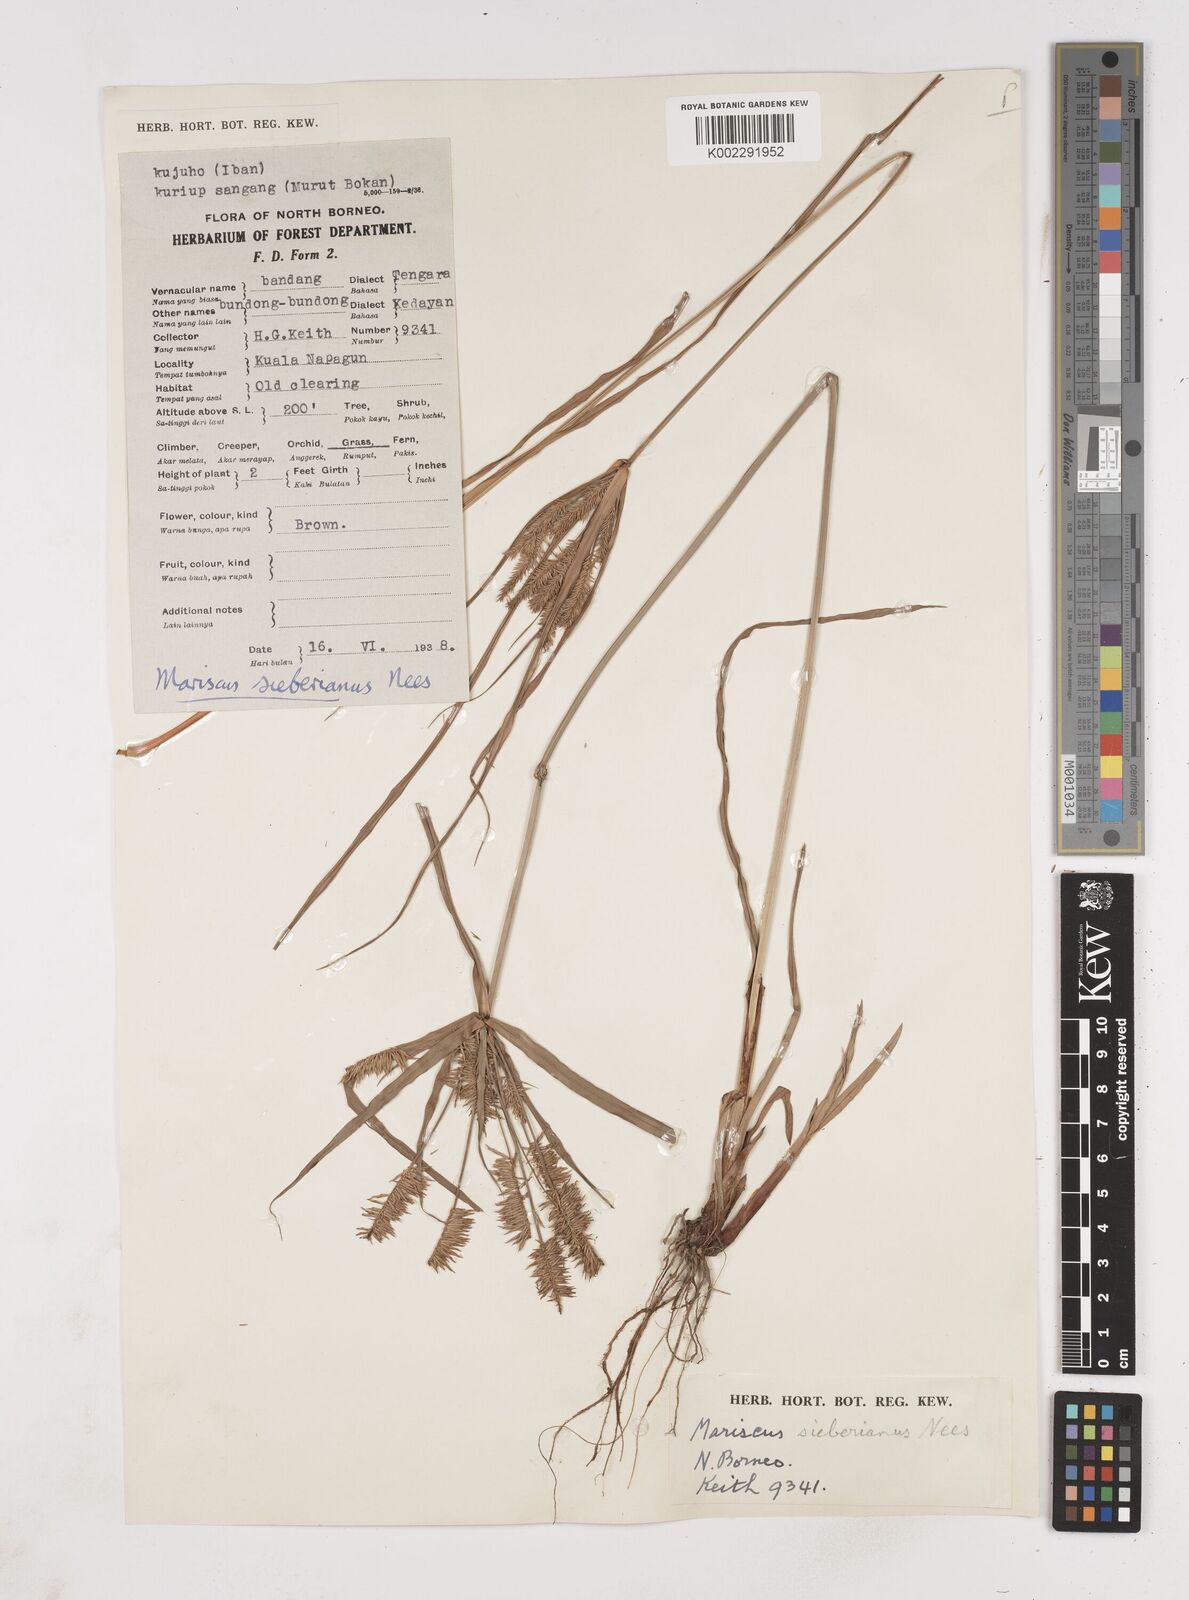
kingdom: Plantae
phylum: Tracheophyta
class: Liliopsida
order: Poales
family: Cyperaceae
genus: Cyperus
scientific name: Cyperus cyperoides
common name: Pacific island flat sedge
